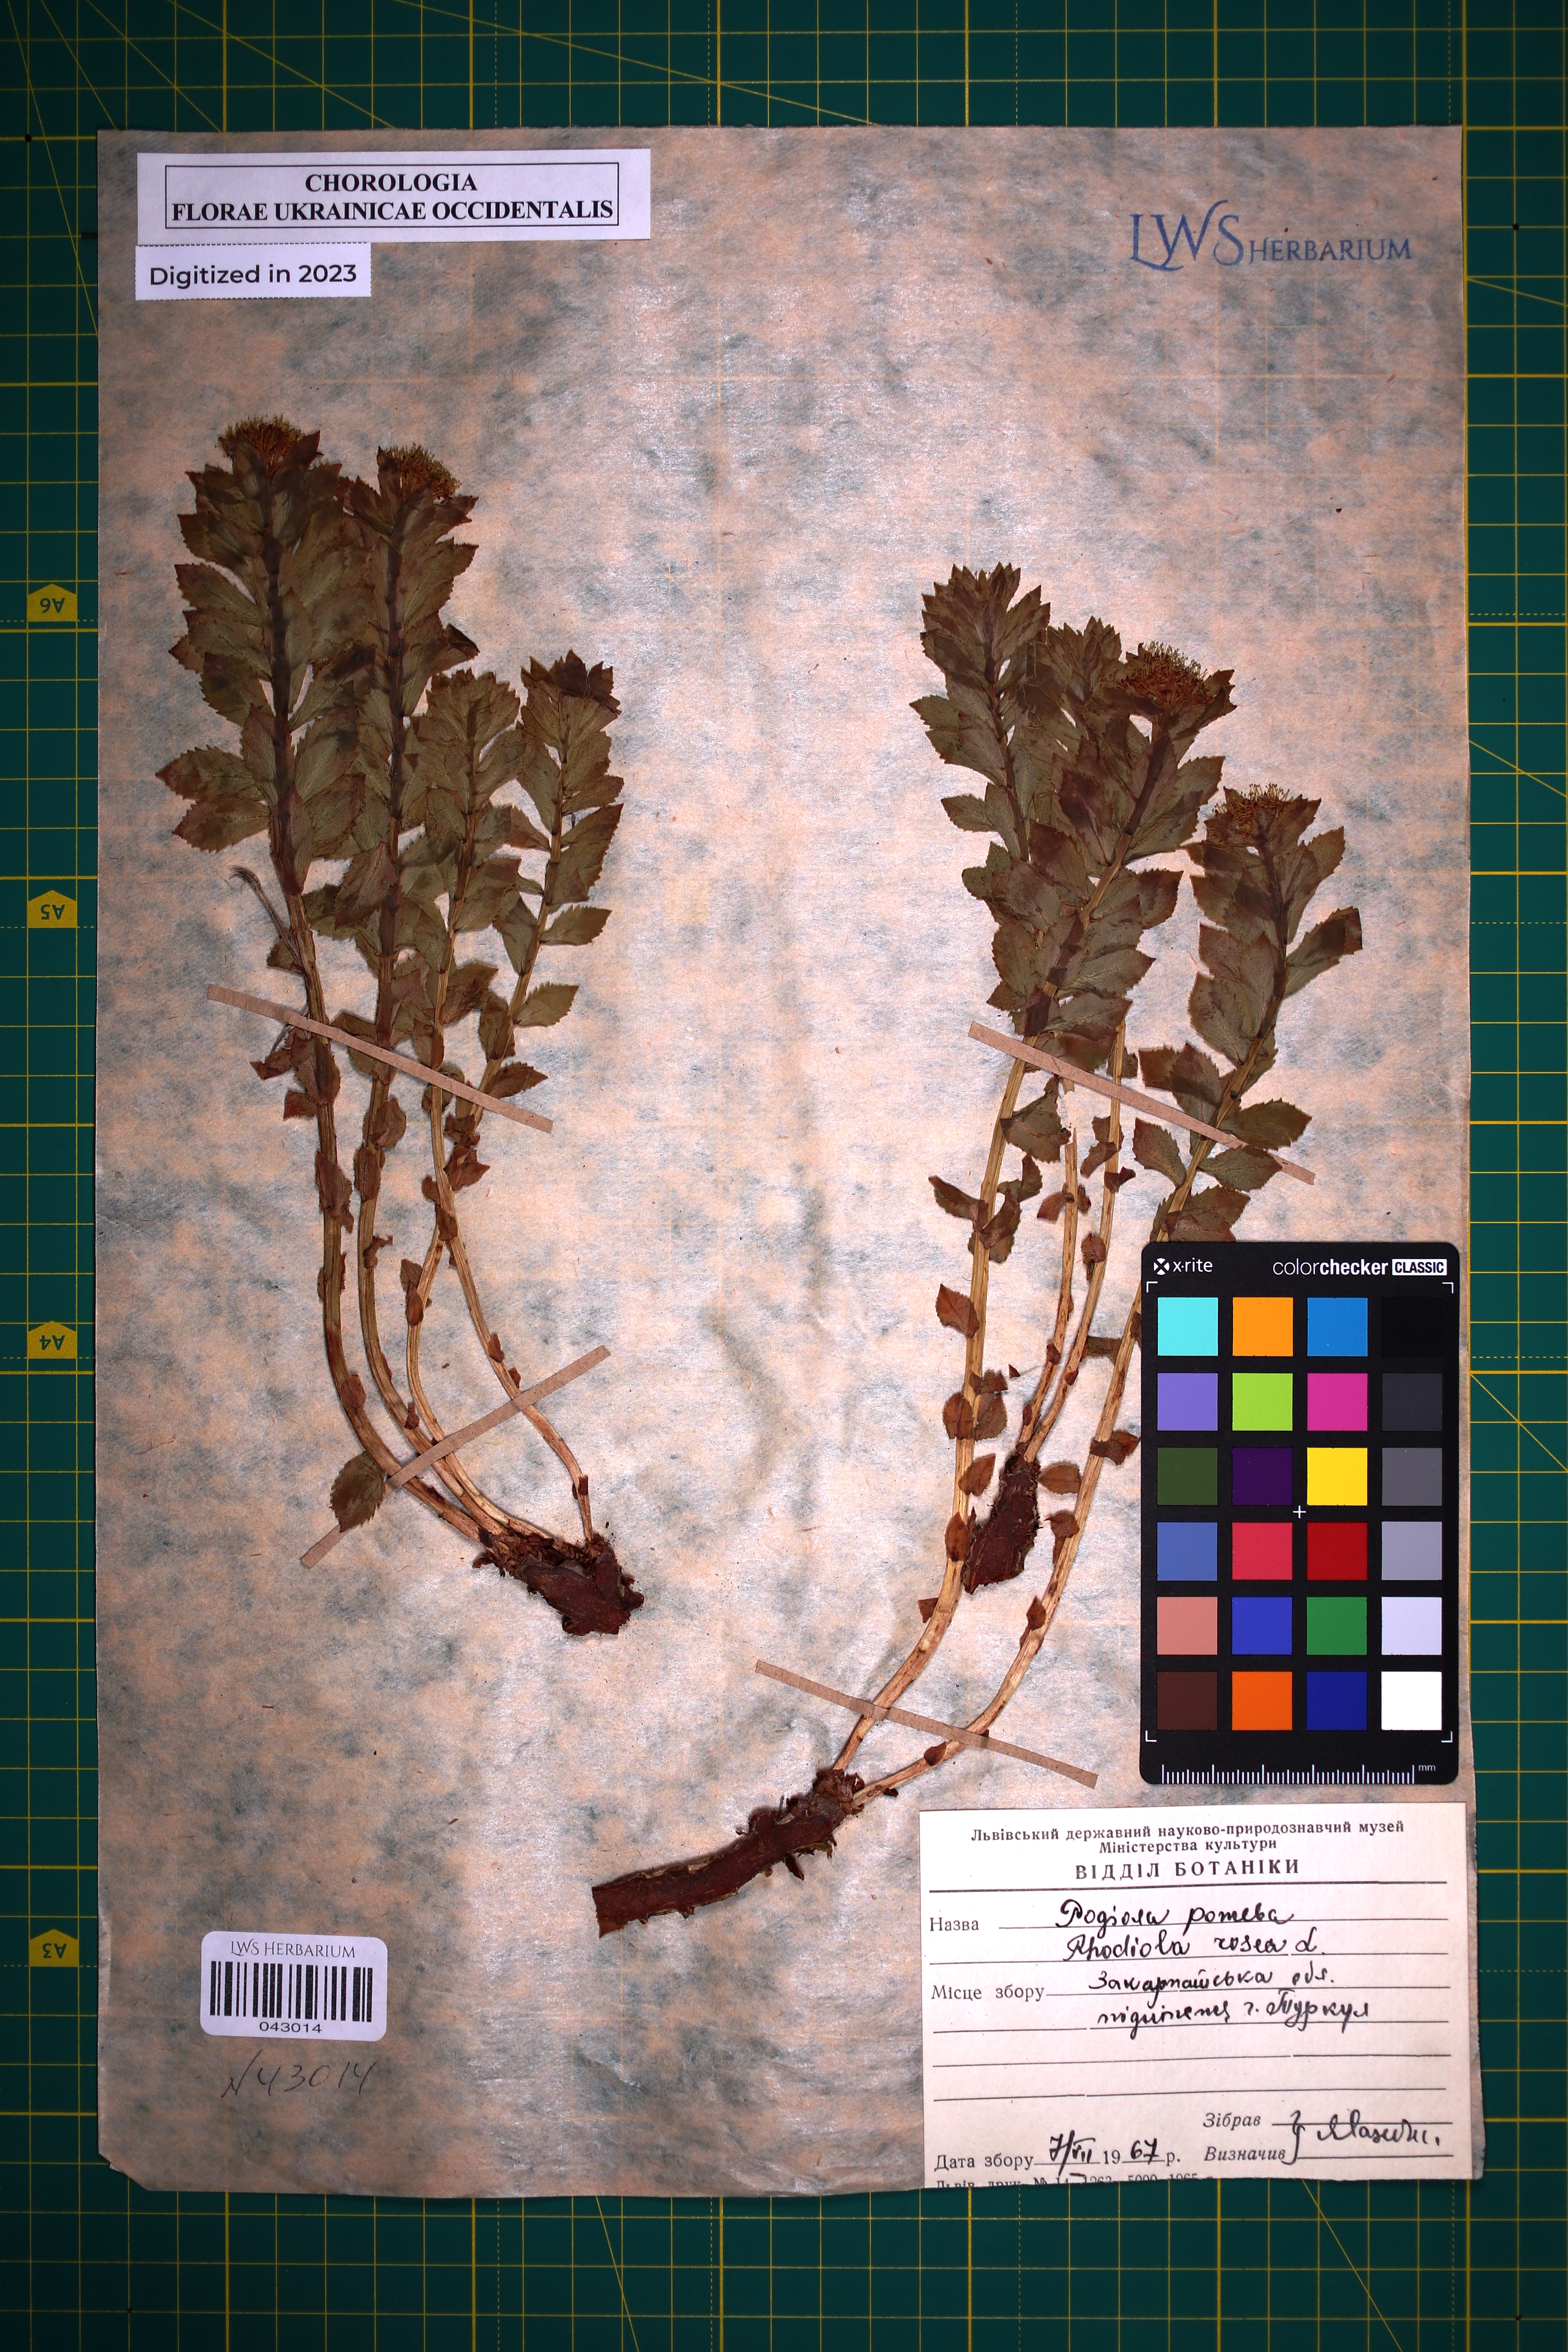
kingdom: Plantae
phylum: Tracheophyta
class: Magnoliopsida
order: Saxifragales
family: Crassulaceae
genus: Rhodiola
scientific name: Rhodiola rosea
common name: Roseroot
